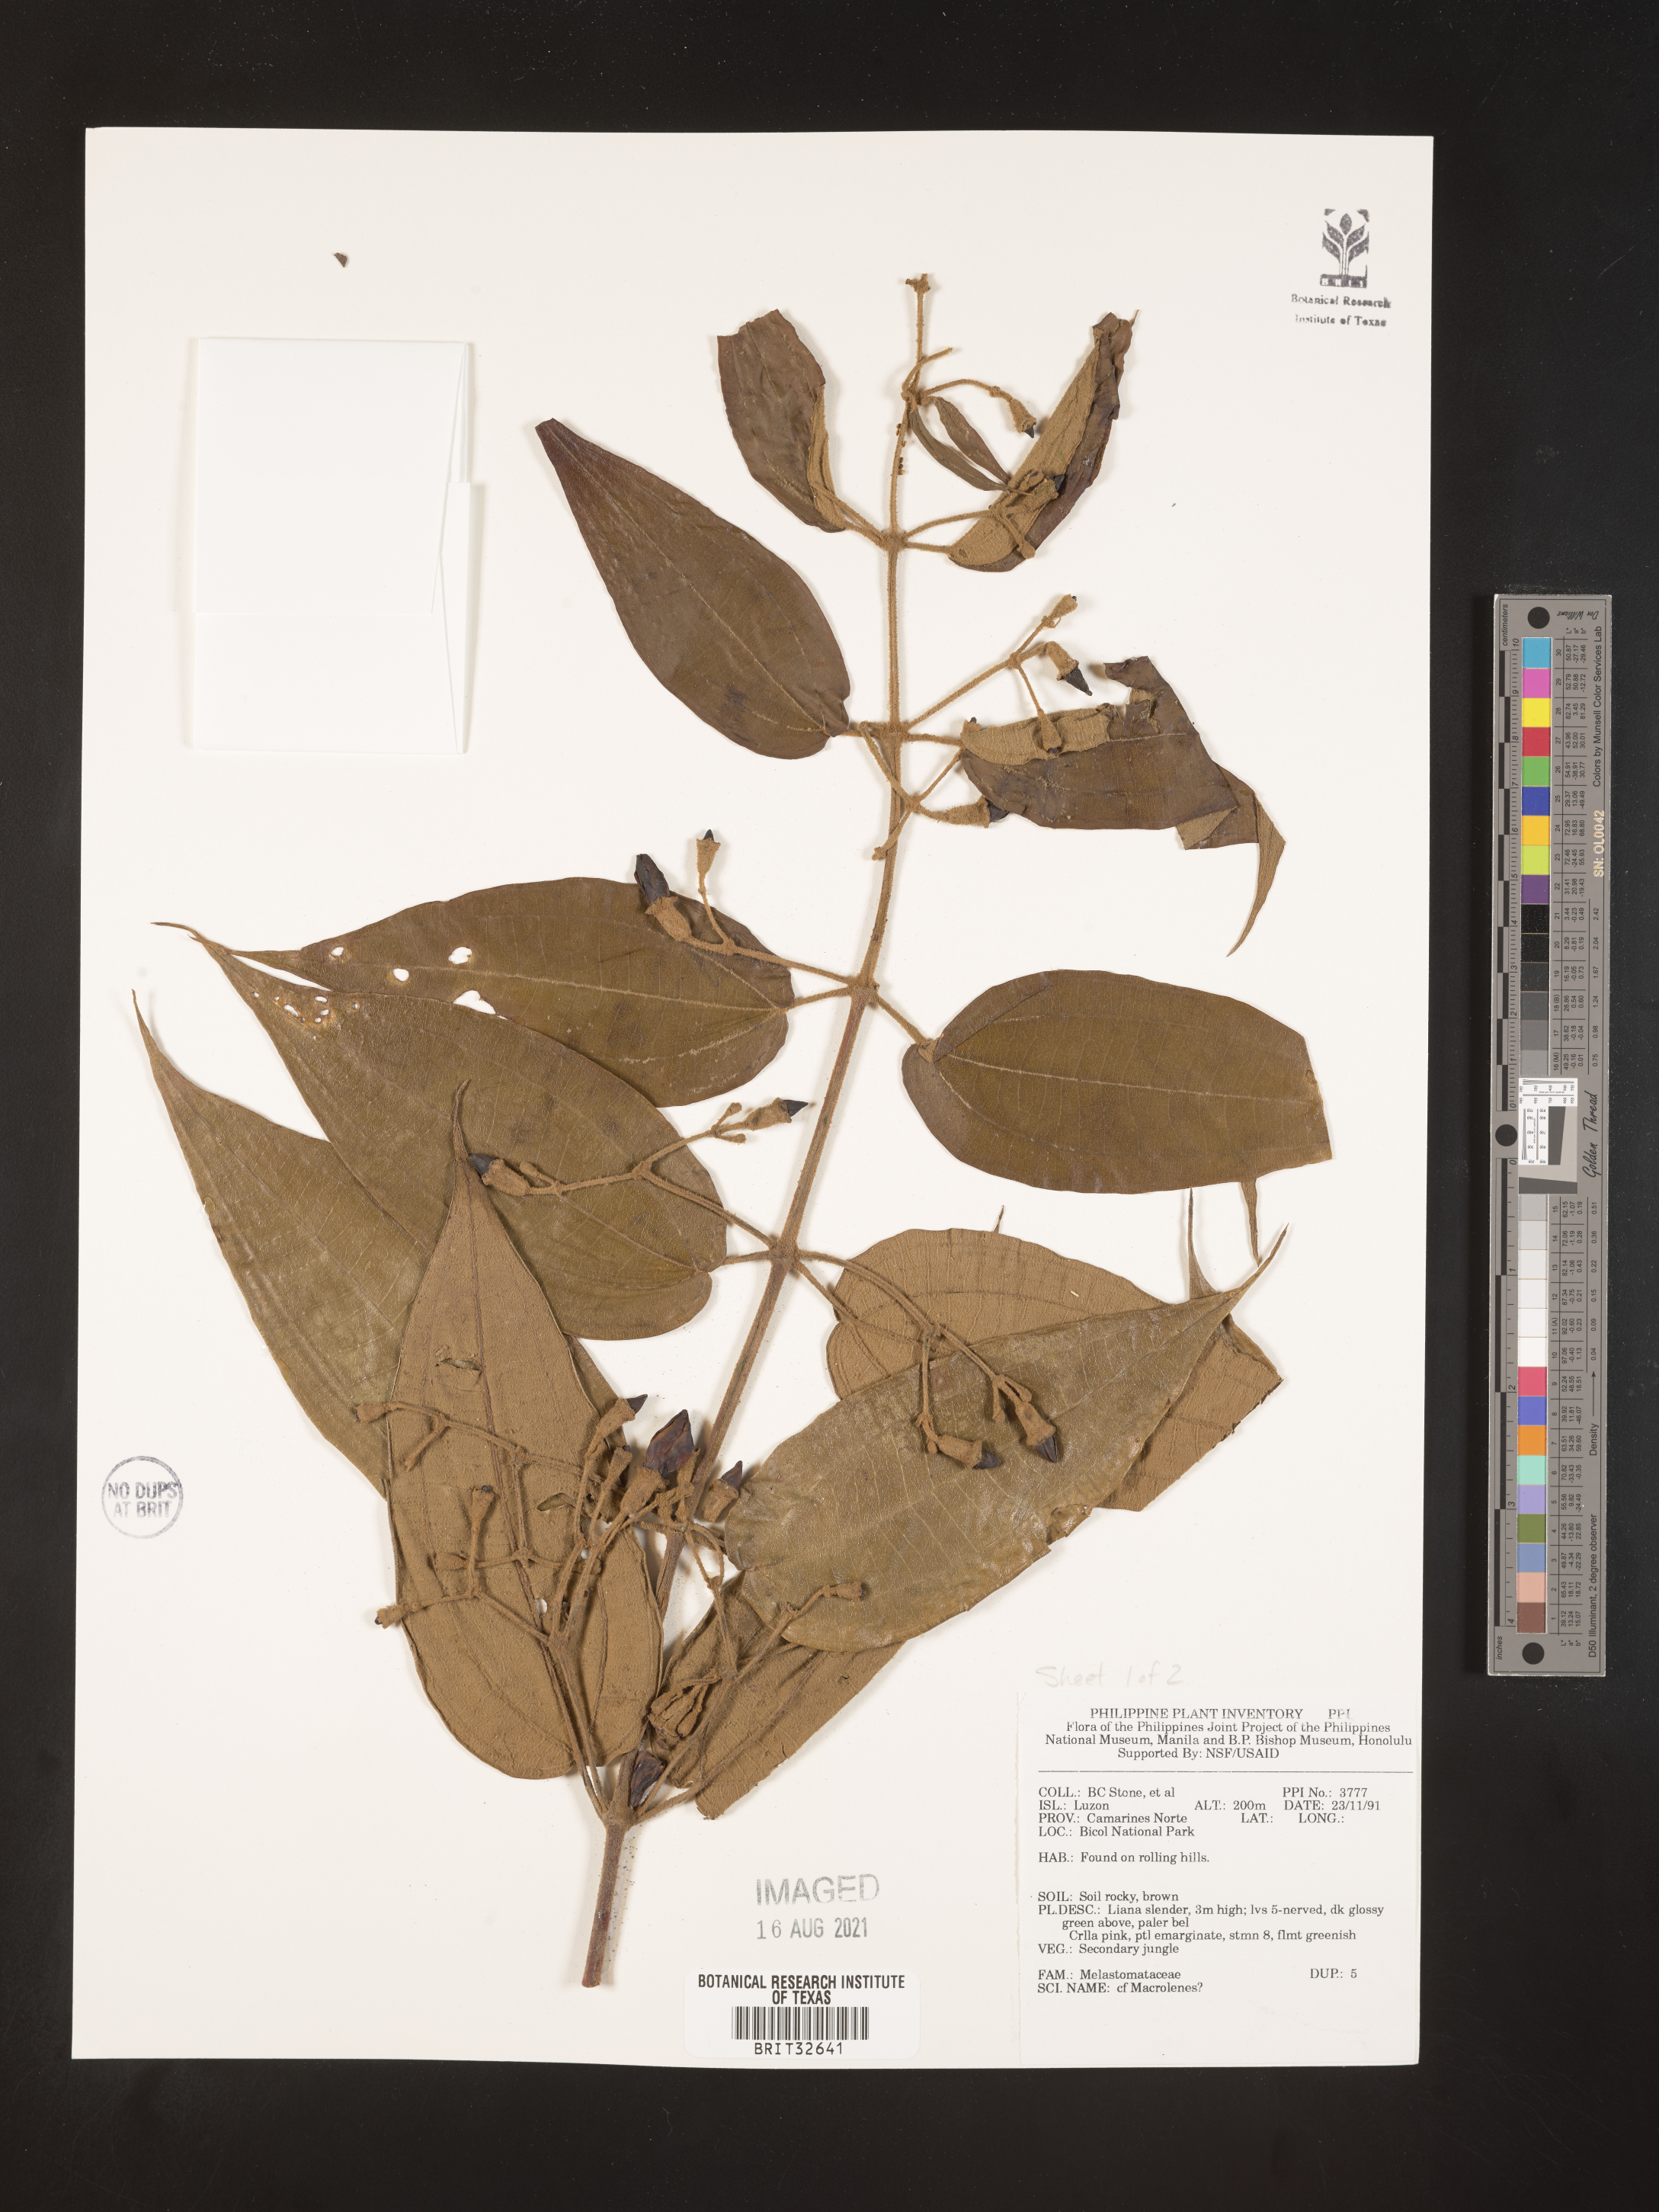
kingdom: Plantae
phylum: Tracheophyta
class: Magnoliopsida
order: Myrtales
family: Melastomataceae
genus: Macrolenes
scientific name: Macrolenes
